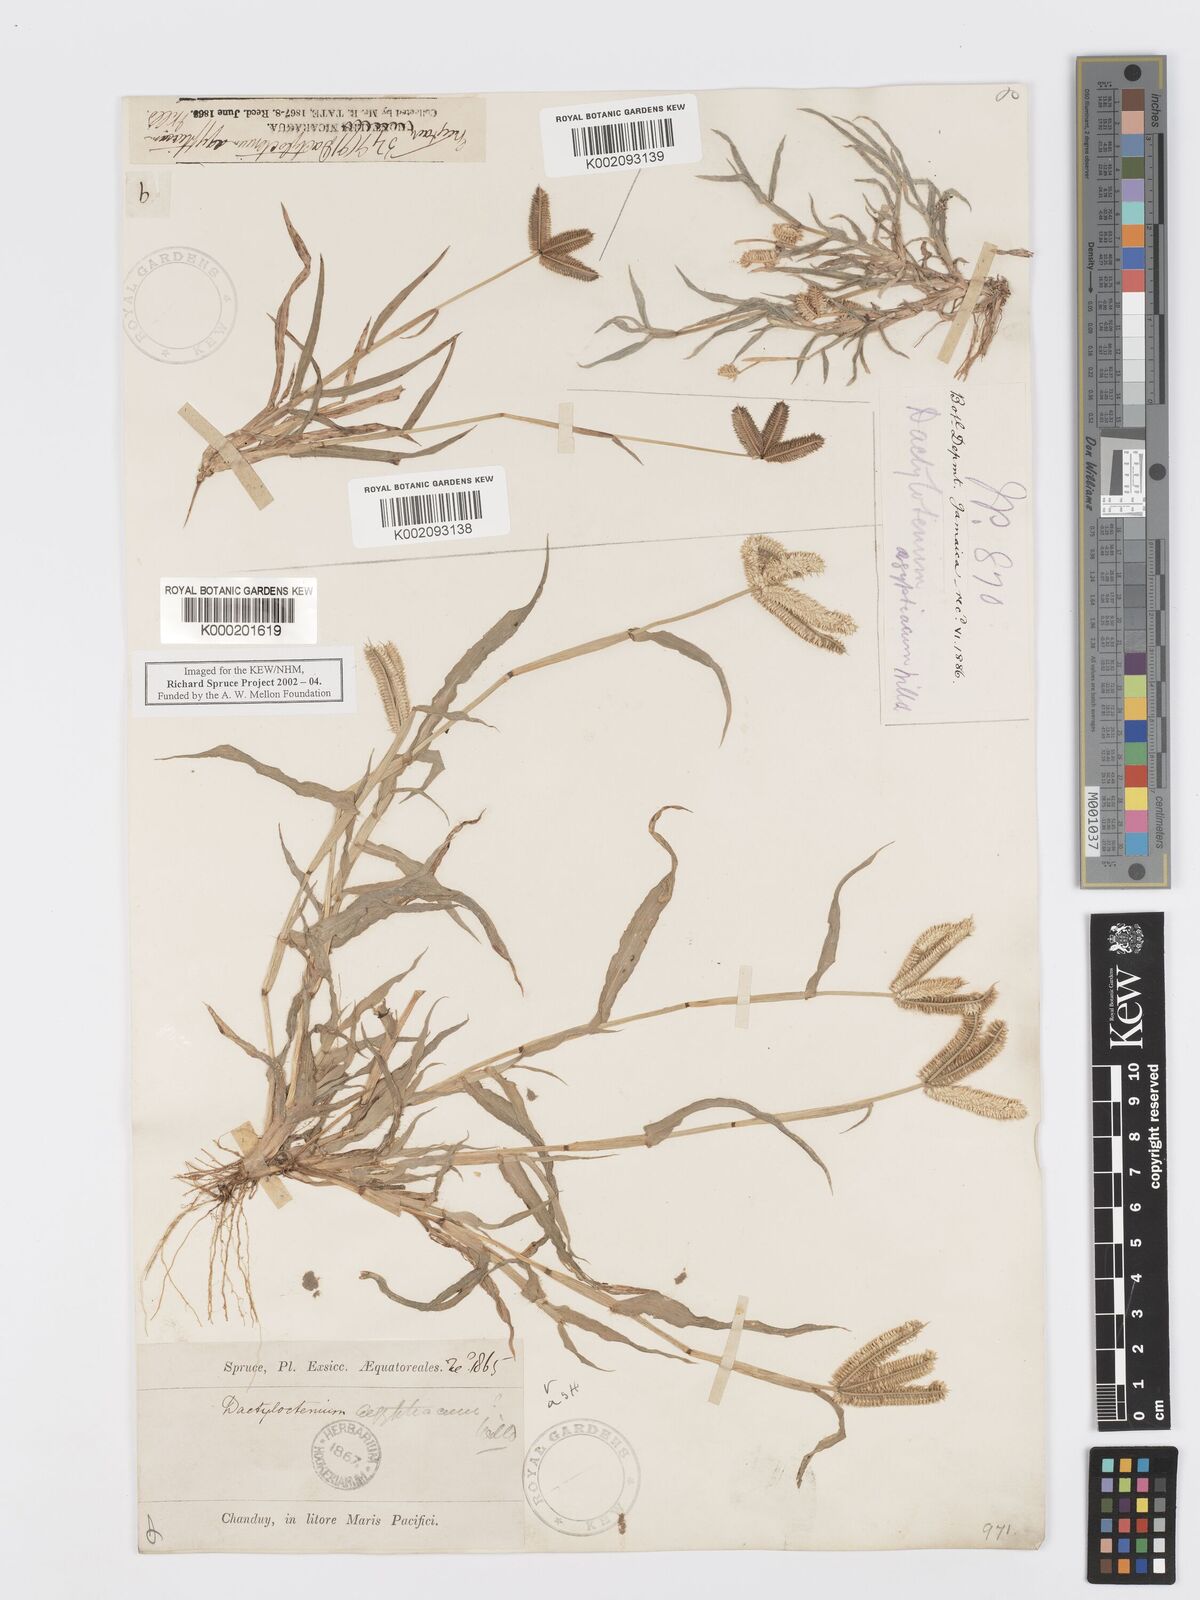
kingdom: Plantae
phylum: Tracheophyta
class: Liliopsida
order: Poales
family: Poaceae
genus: Dactyloctenium
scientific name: Dactyloctenium aegyptium
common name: Egyptian grass
